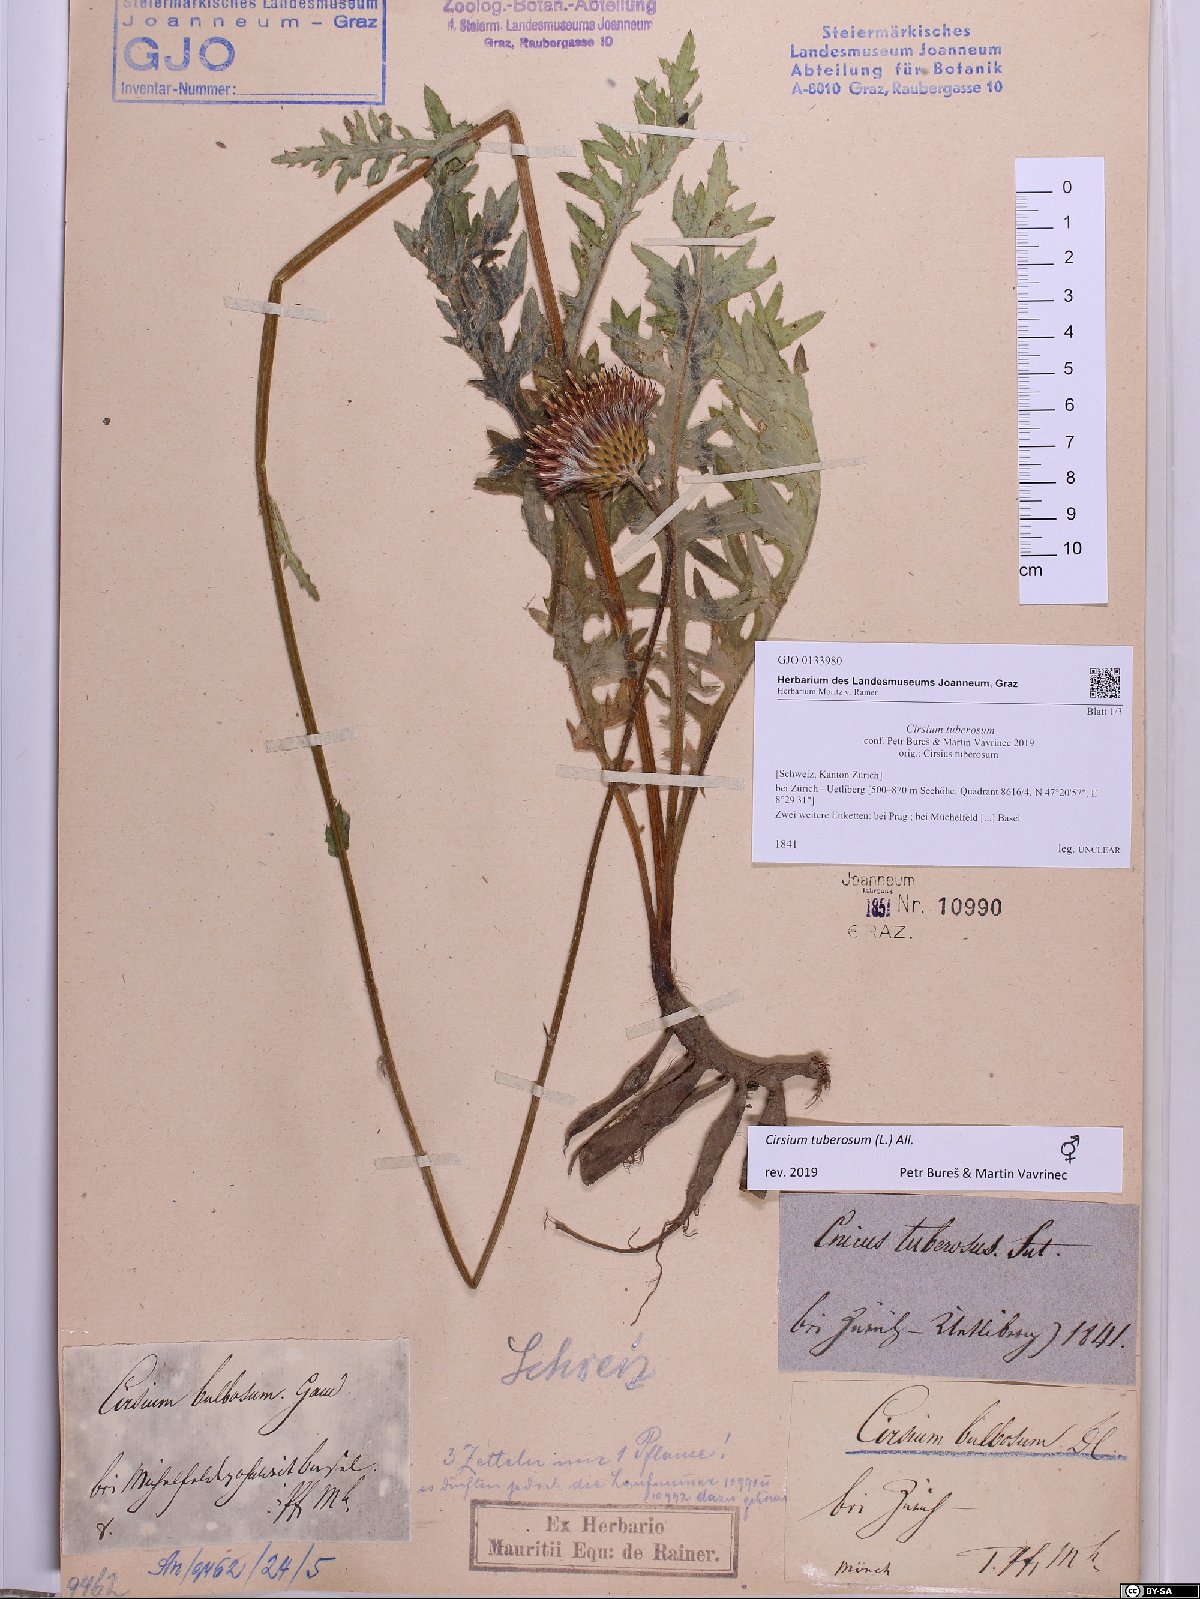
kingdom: Plantae
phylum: Tracheophyta
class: Magnoliopsida
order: Asterales
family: Asteraceae
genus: Cirsium
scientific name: Cirsium tuberosum
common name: Tuberous thistle
